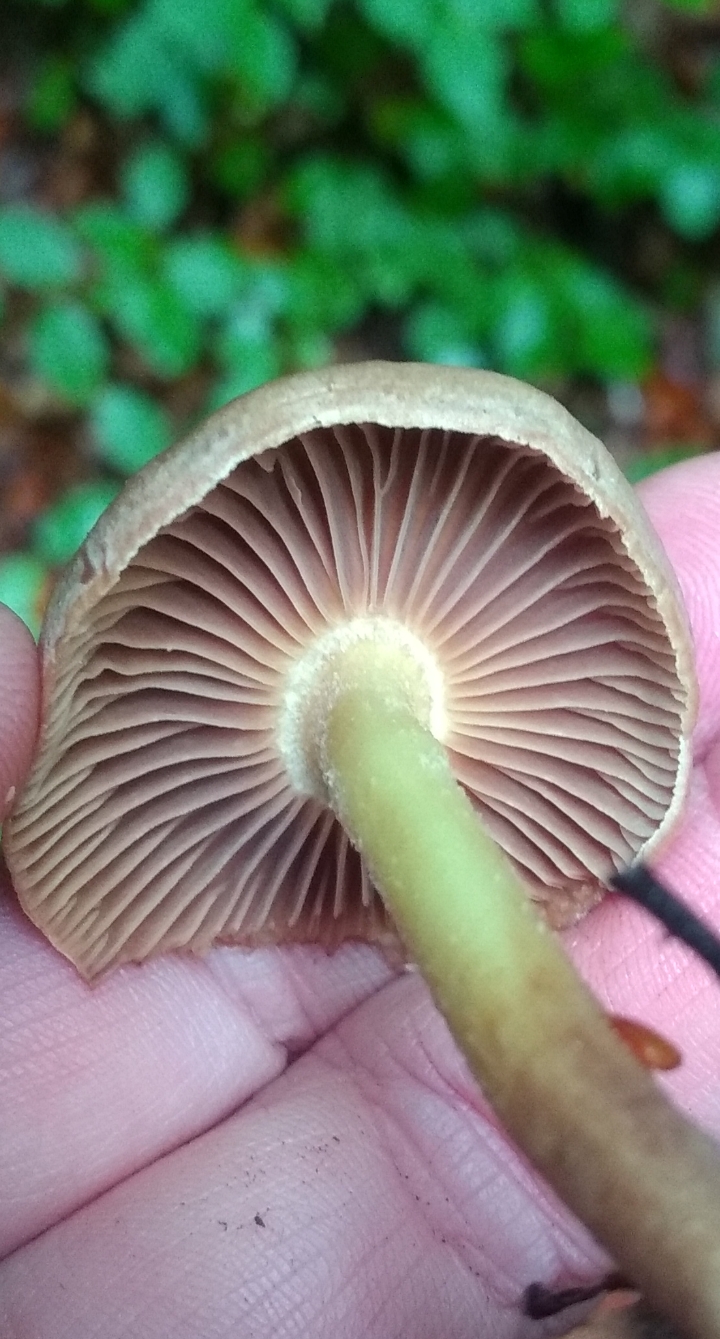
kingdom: Fungi
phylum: Basidiomycota
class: Agaricomycetes
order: Agaricales
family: Omphalotaceae
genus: Collybiopsis
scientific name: Collybiopsis peronata
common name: bestøvlet fladhat
